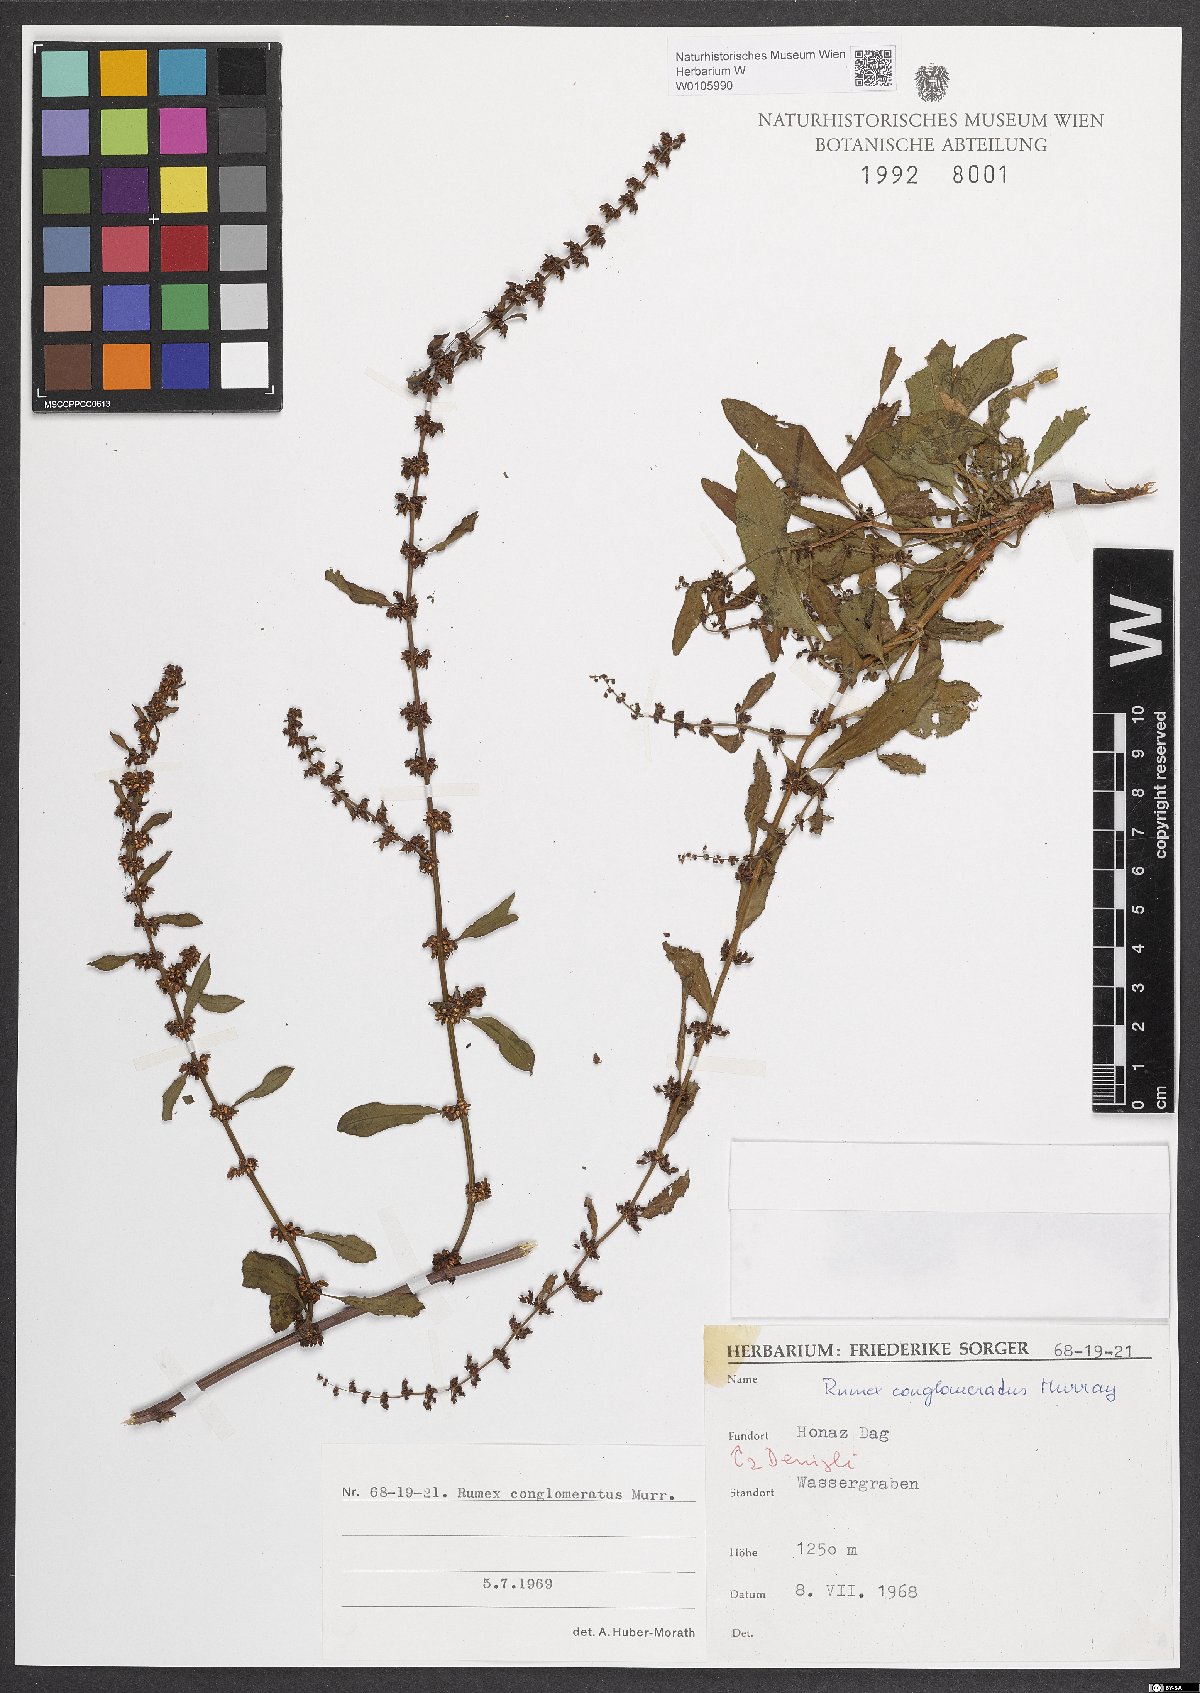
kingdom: Plantae
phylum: Tracheophyta
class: Magnoliopsida
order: Caryophyllales
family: Polygonaceae
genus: Rumex
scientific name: Rumex conglomeratus
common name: Clustered dock
